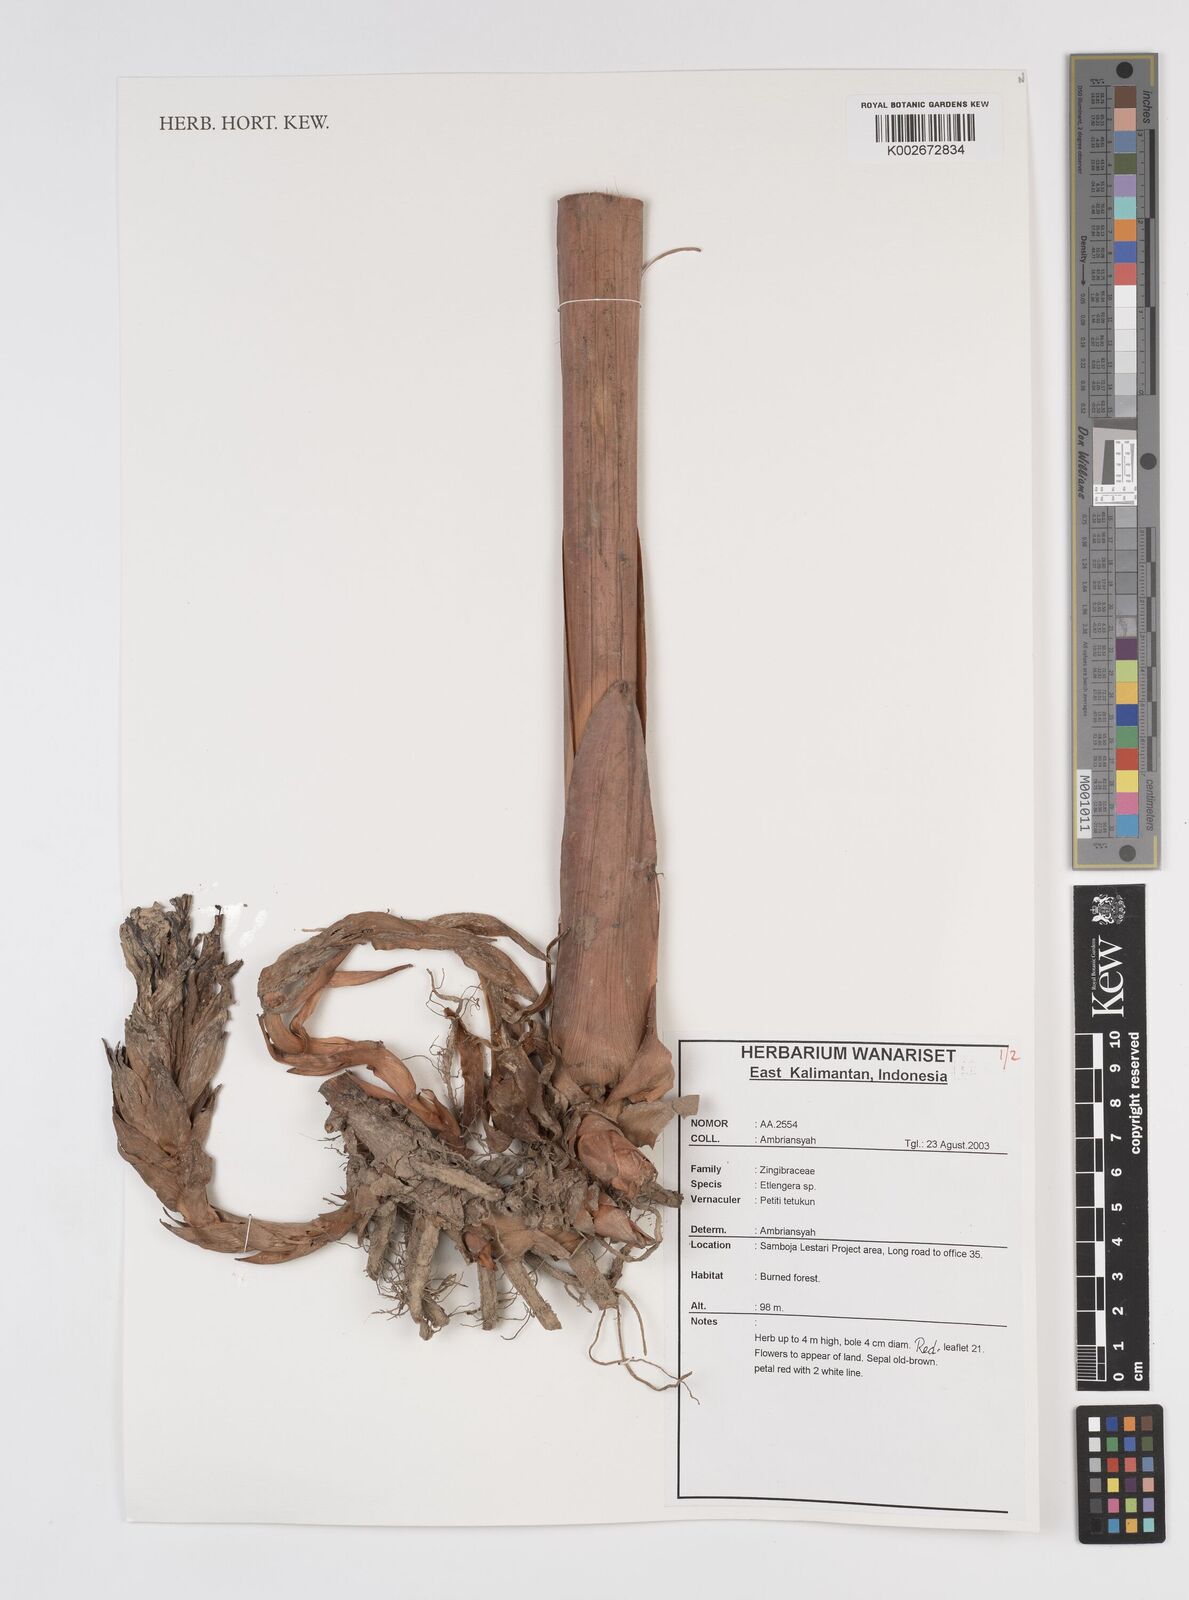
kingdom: Plantae
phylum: Tracheophyta
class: Liliopsida
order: Zingiberales
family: Zingiberaceae
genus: Etlingera
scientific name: Etlingera
